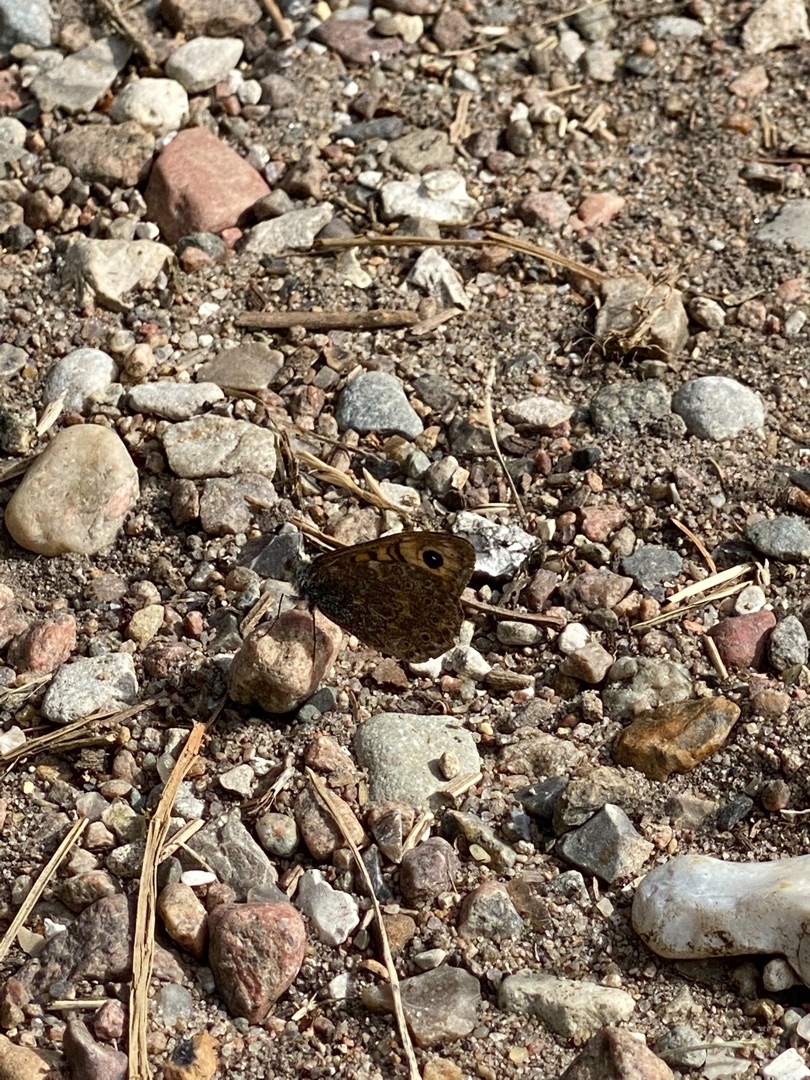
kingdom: Animalia
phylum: Arthropoda
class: Insecta
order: Lepidoptera
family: Nymphalidae
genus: Pararge
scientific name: Pararge Lasiommata megera
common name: Vejrandøje
